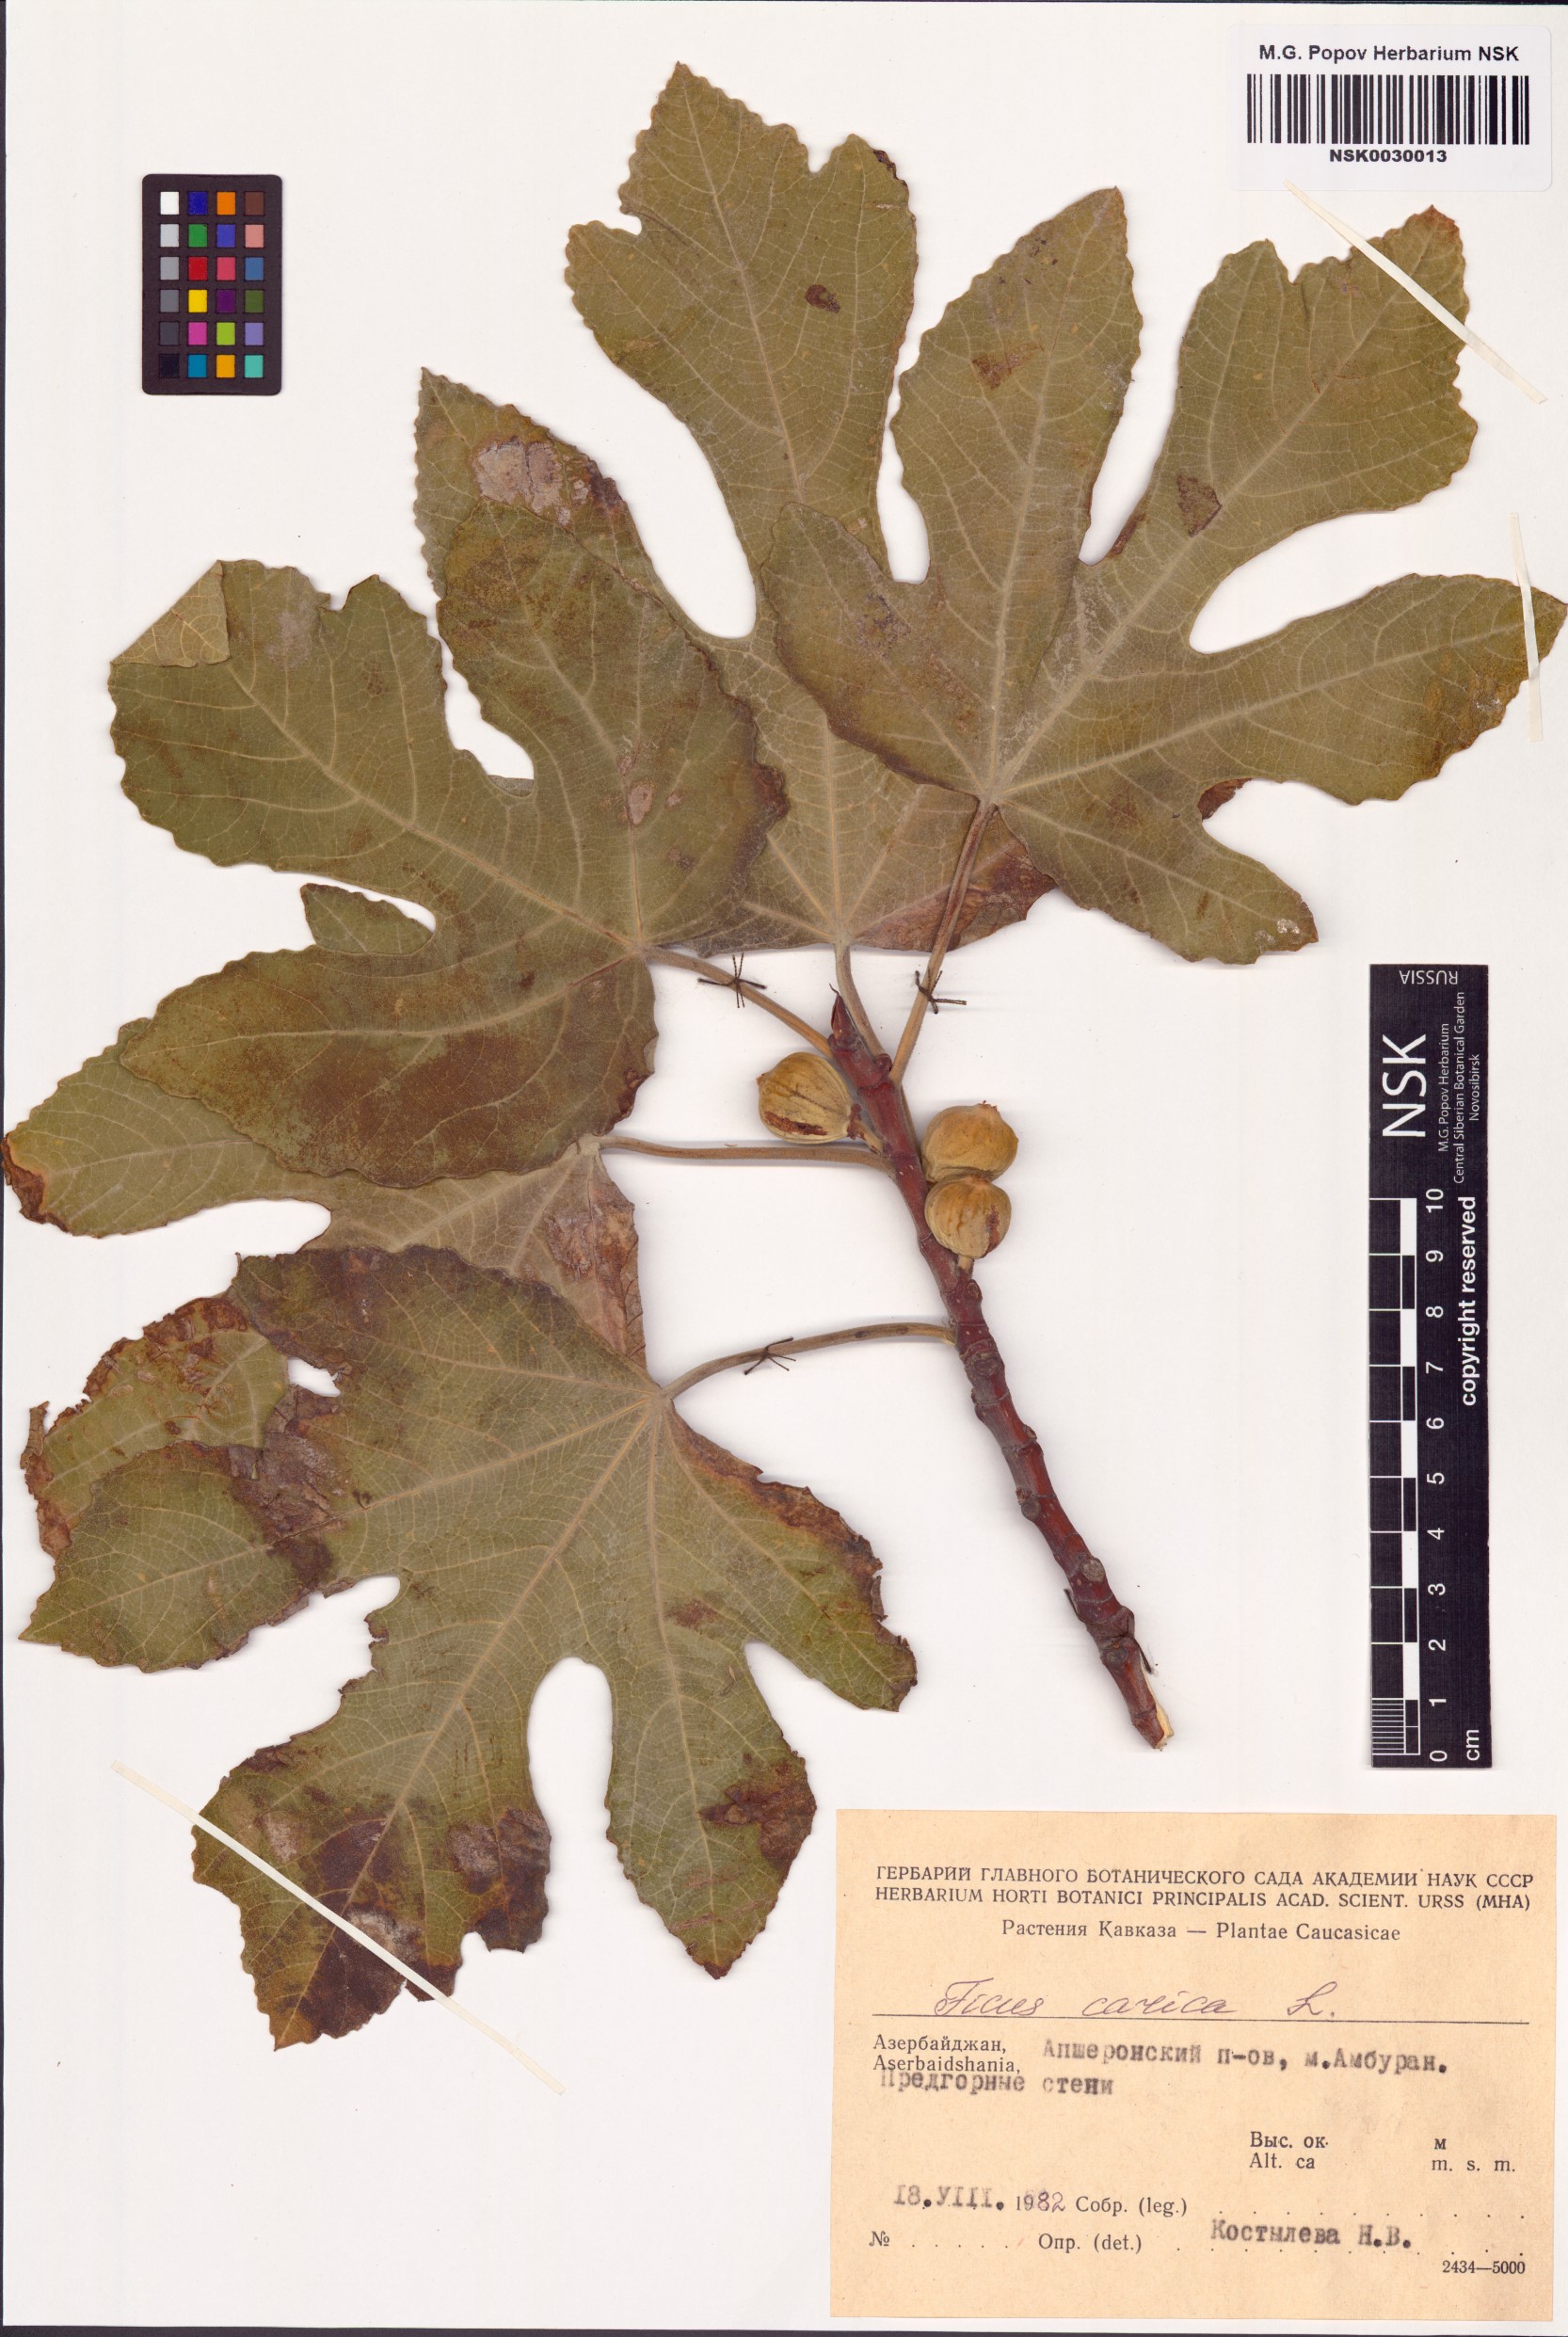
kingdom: Plantae
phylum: Tracheophyta
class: Magnoliopsida
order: Rosales
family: Moraceae
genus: Ficus
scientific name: Ficus carica
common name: Fig
